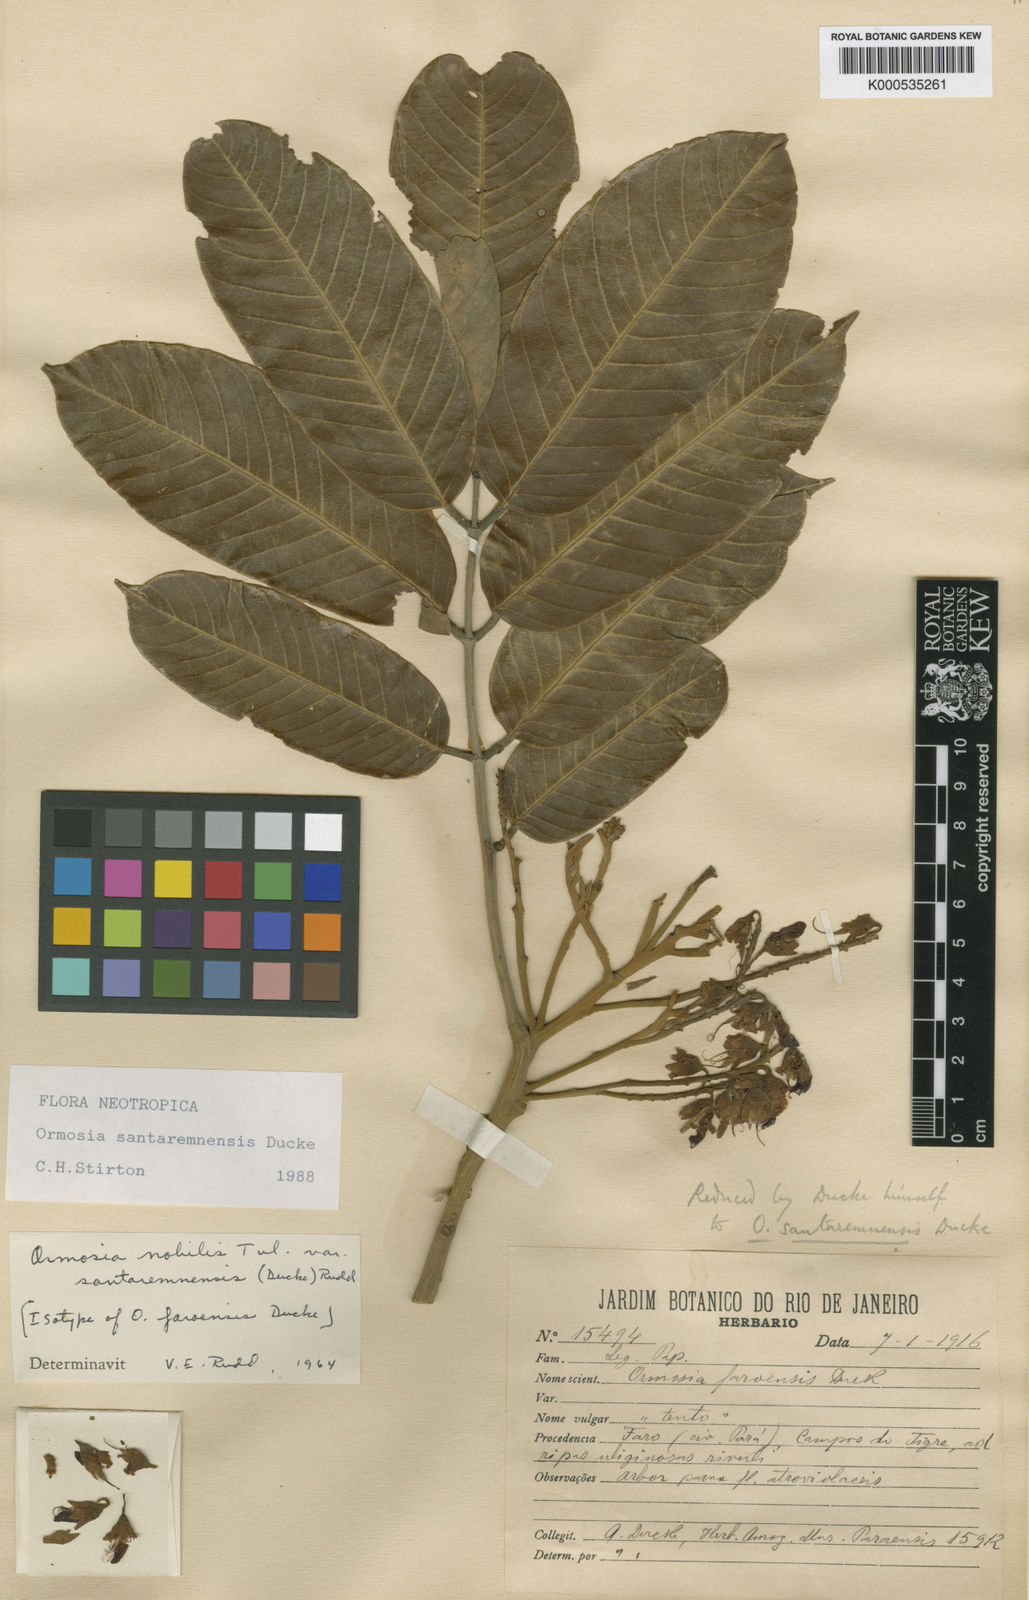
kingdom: Plantae
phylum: Tracheophyta
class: Magnoliopsida
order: Fabales
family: Fabaceae
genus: Ormosia
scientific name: Ormosia santaremnensis
